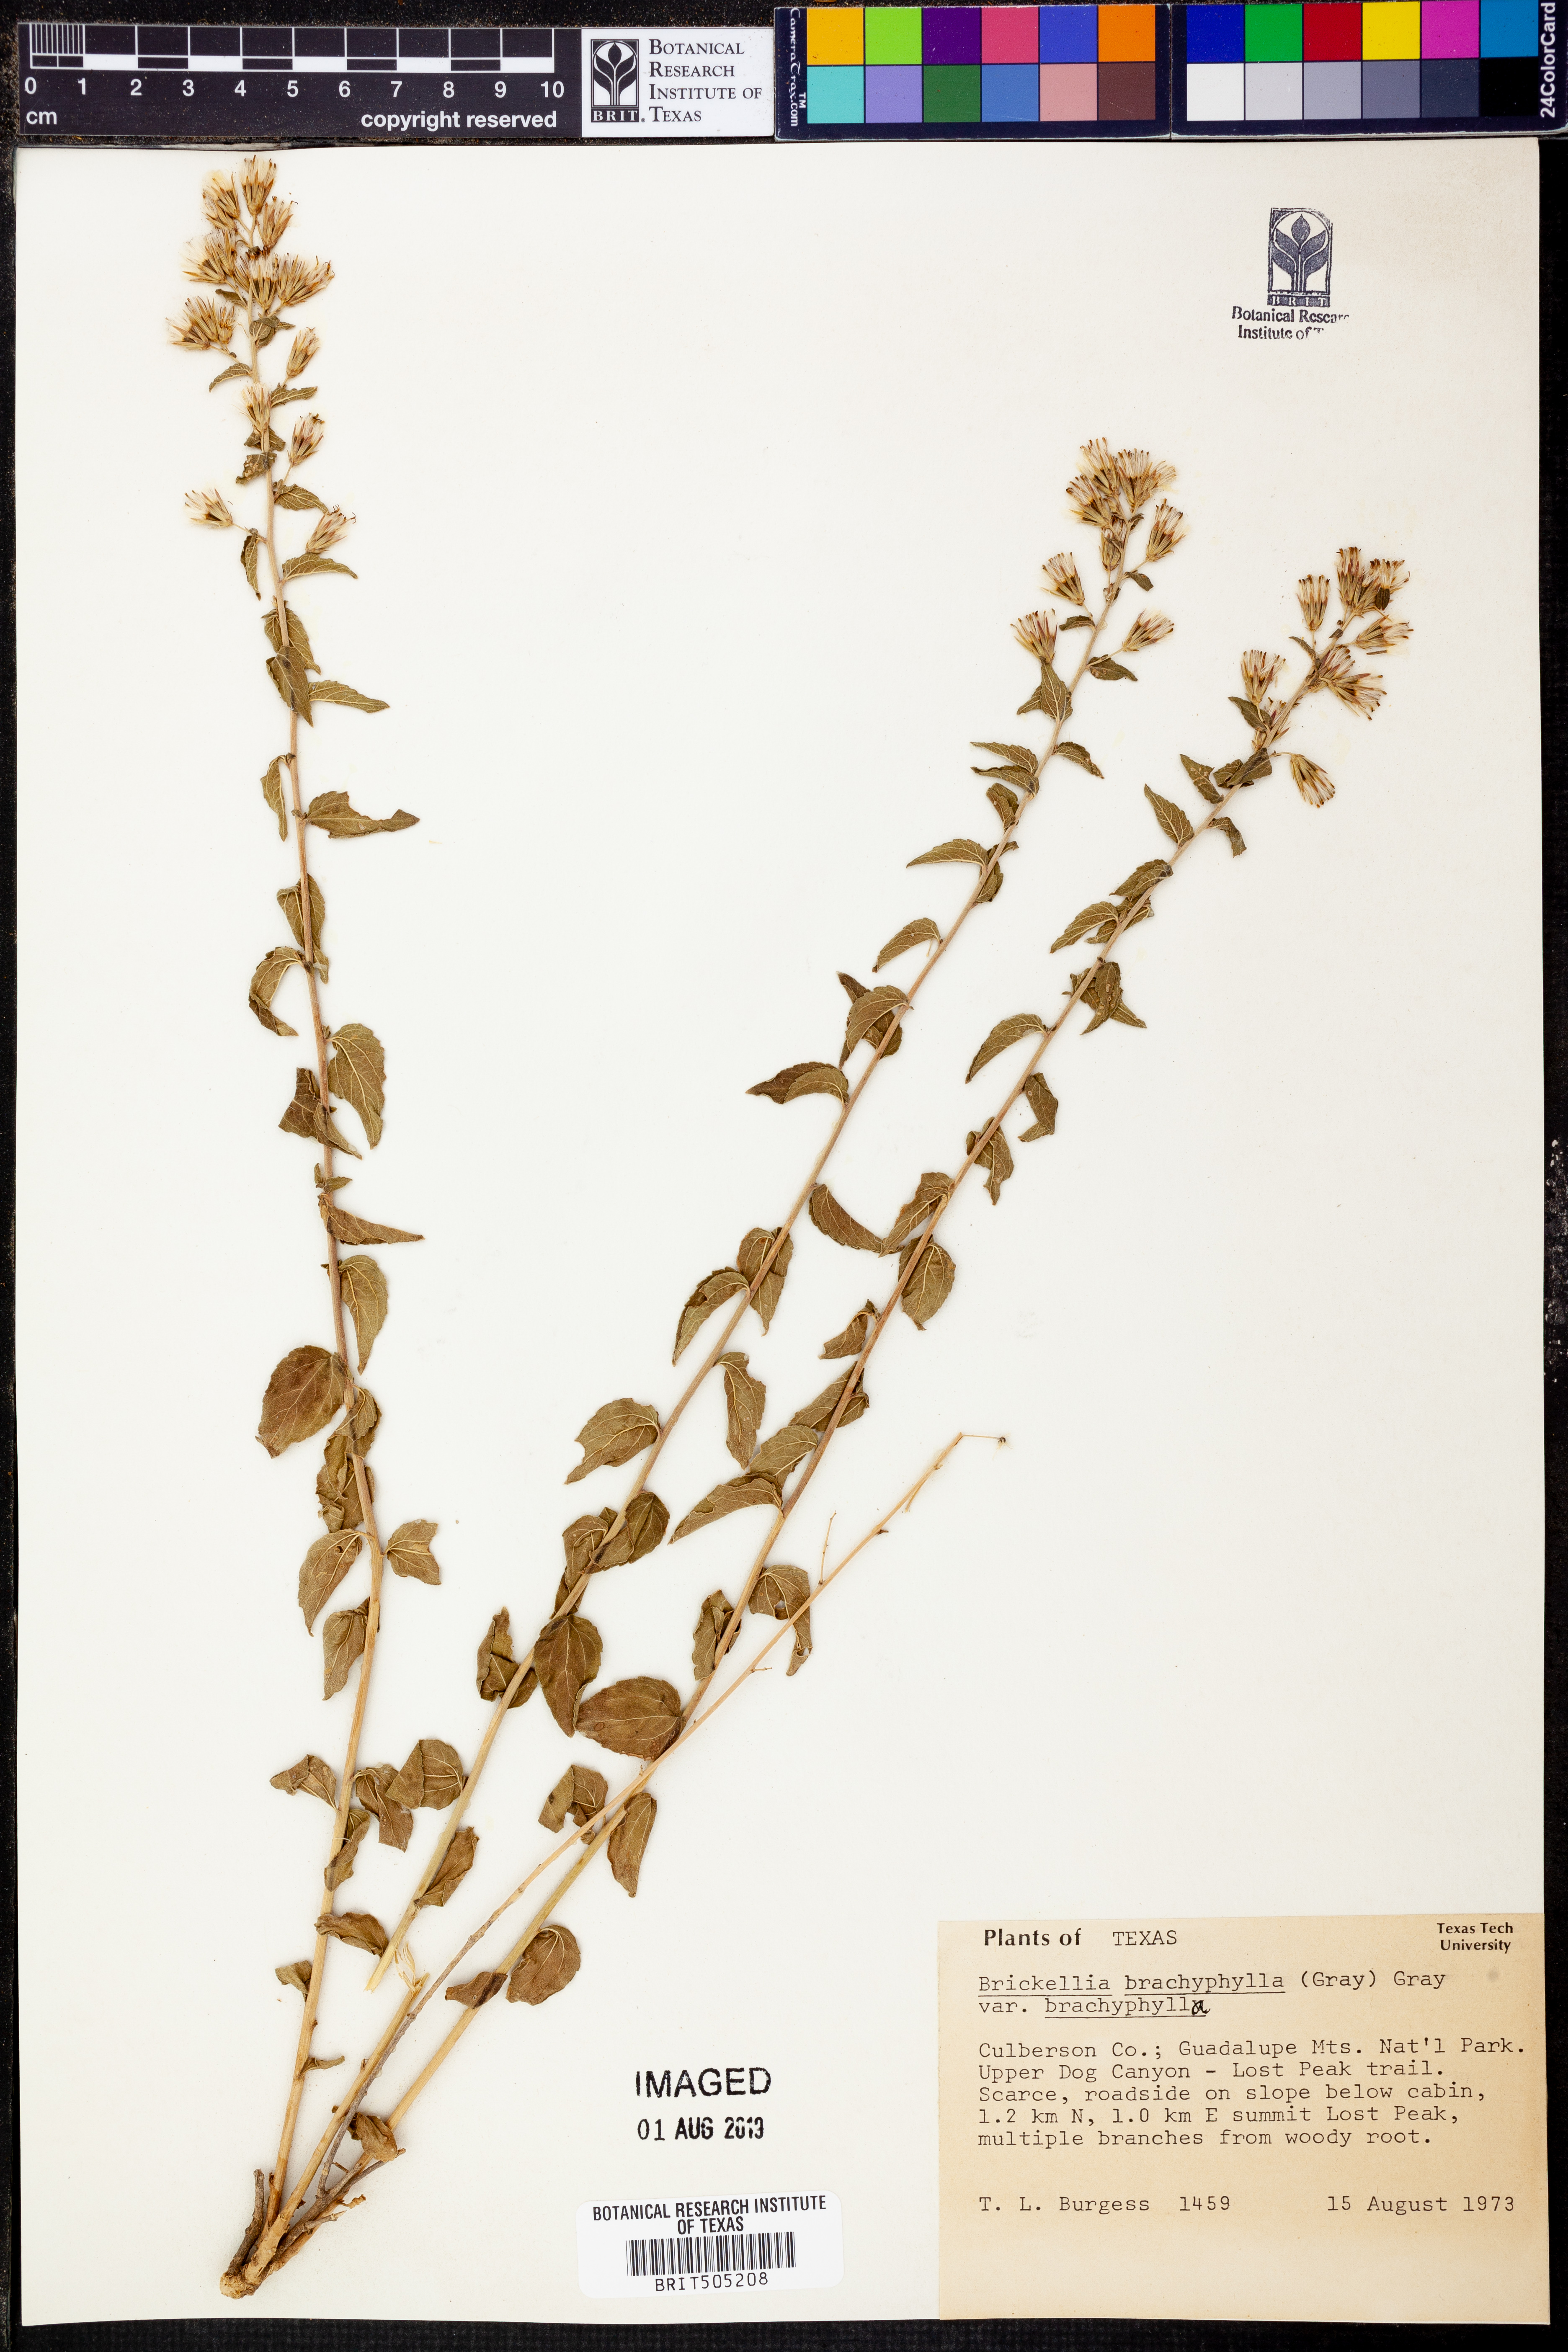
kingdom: Plantae
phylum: Tracheophyta
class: Magnoliopsida
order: Asterales
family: Asteraceae
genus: Brickellia
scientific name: Brickellia brachyphylla
